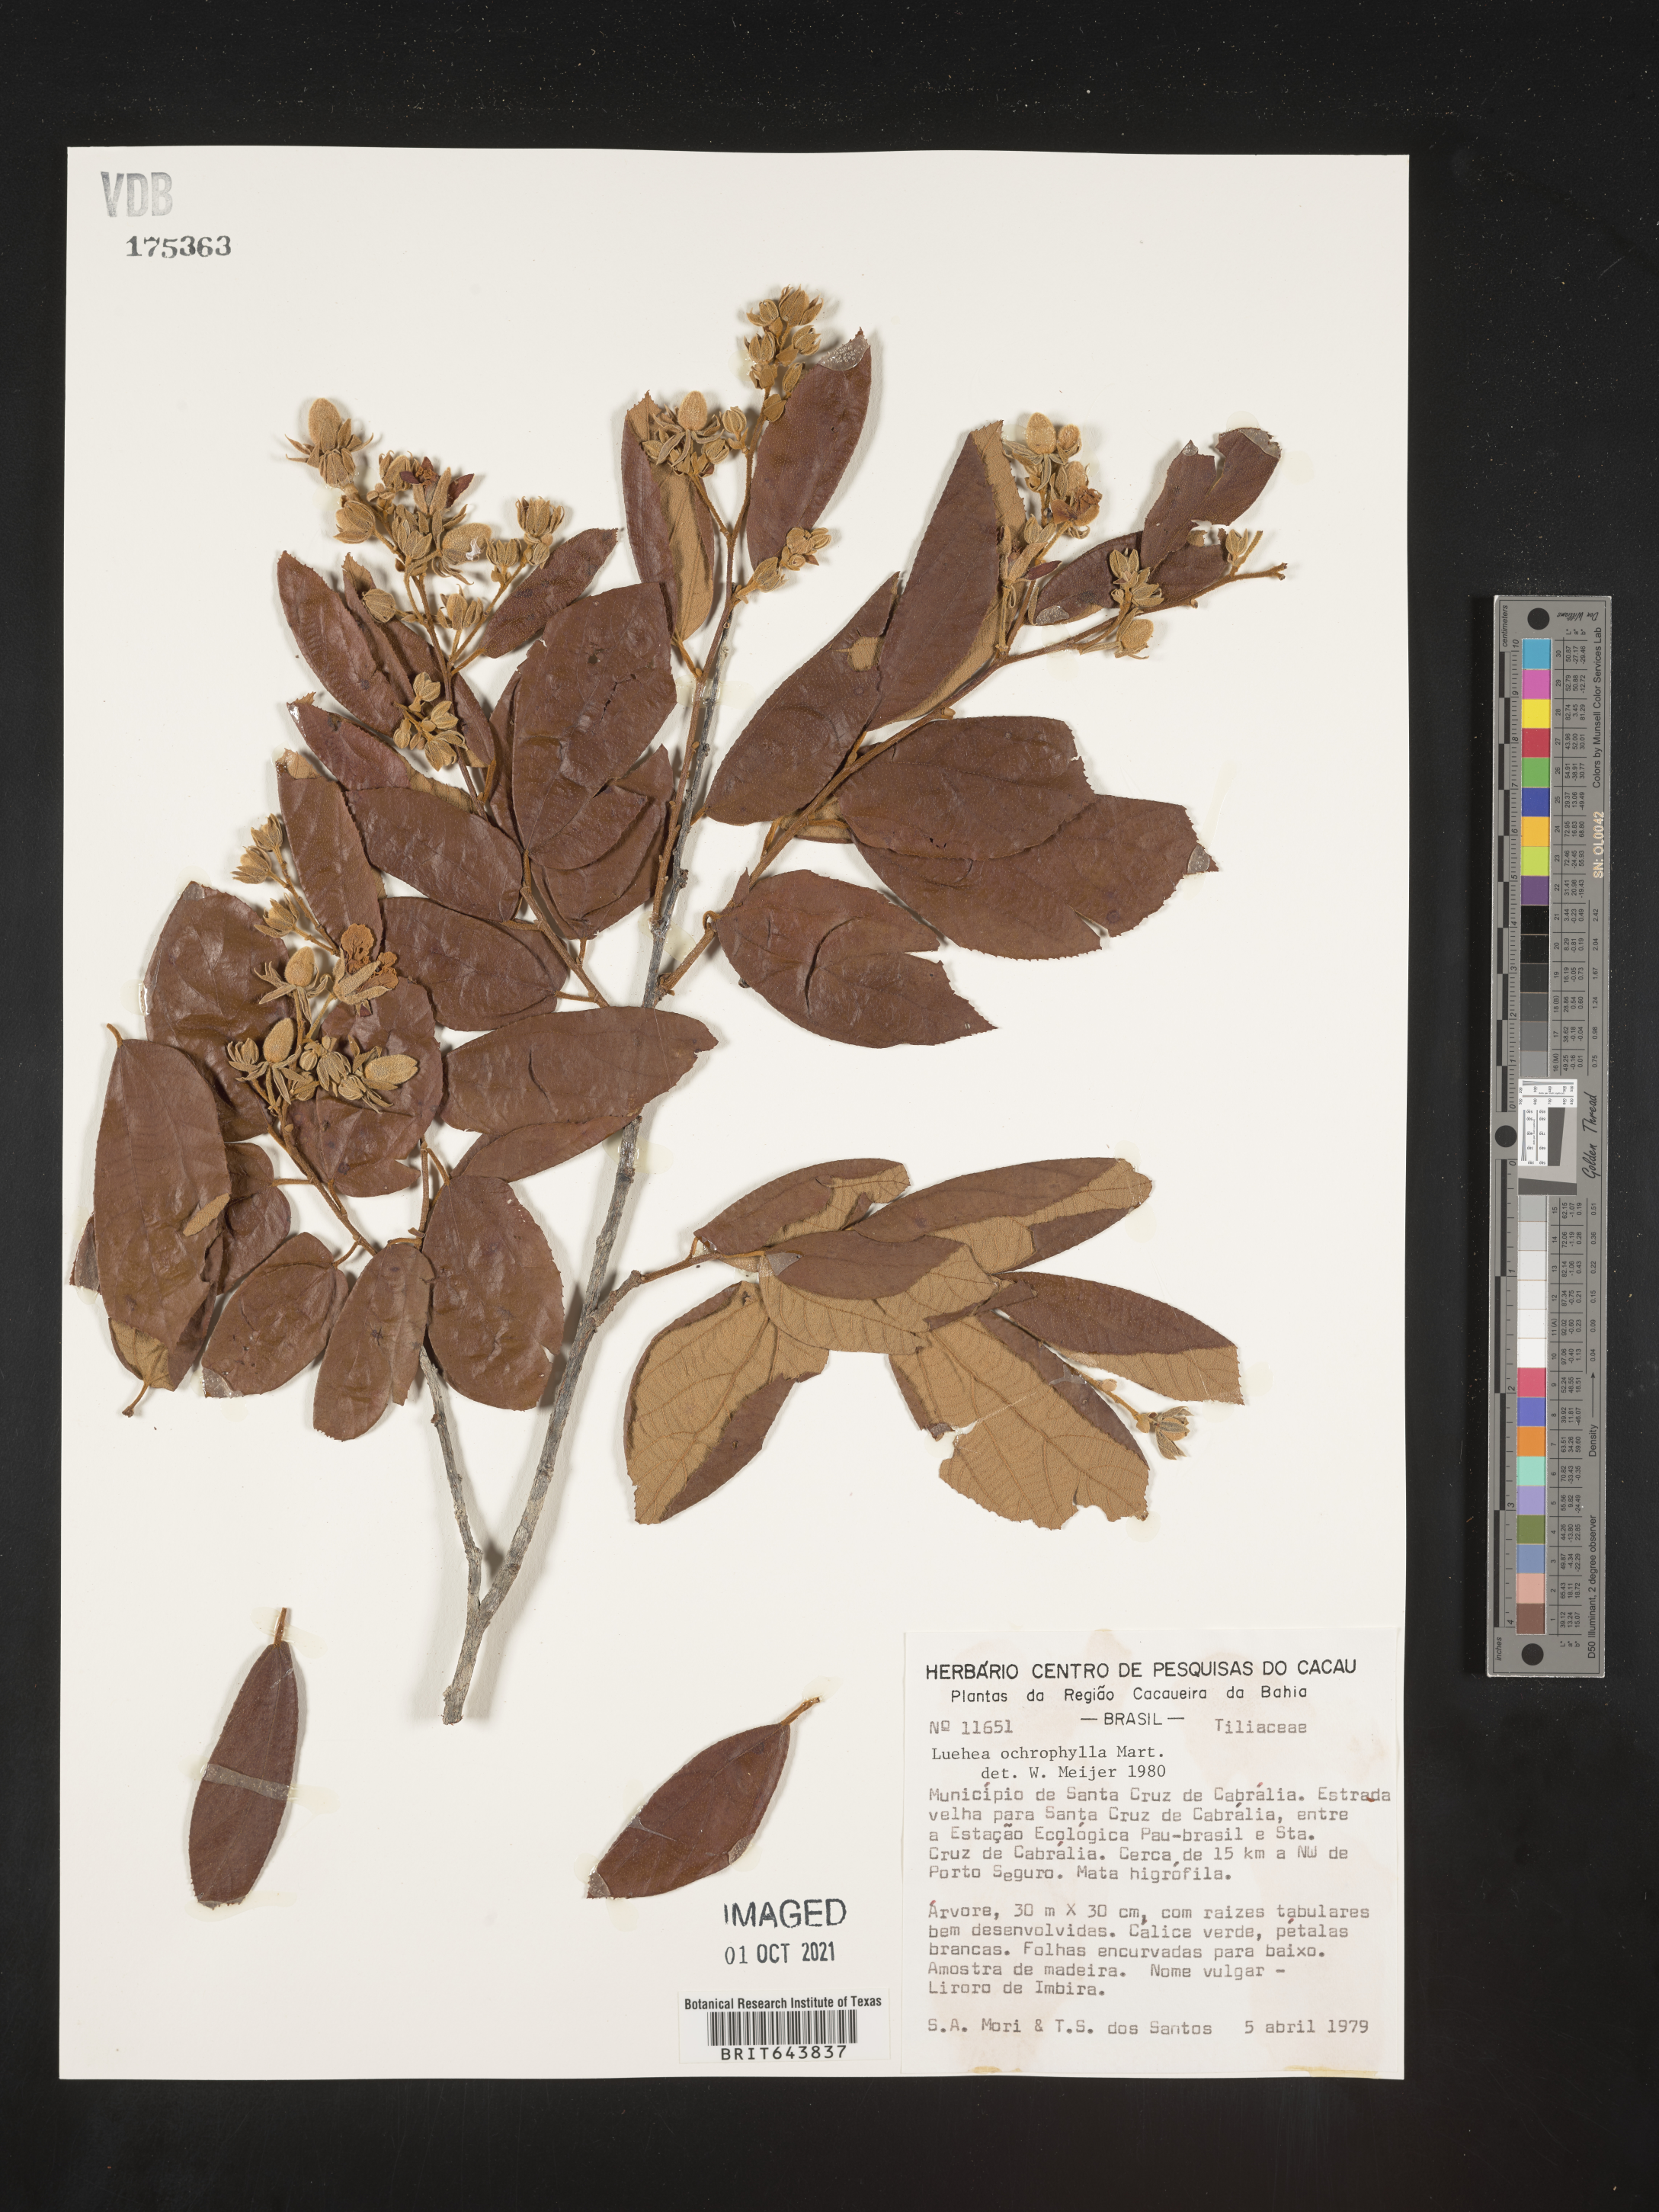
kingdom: Plantae
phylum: Tracheophyta
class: Magnoliopsida
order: Malvales
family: Malvaceae
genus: Luehea
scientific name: Luehea
